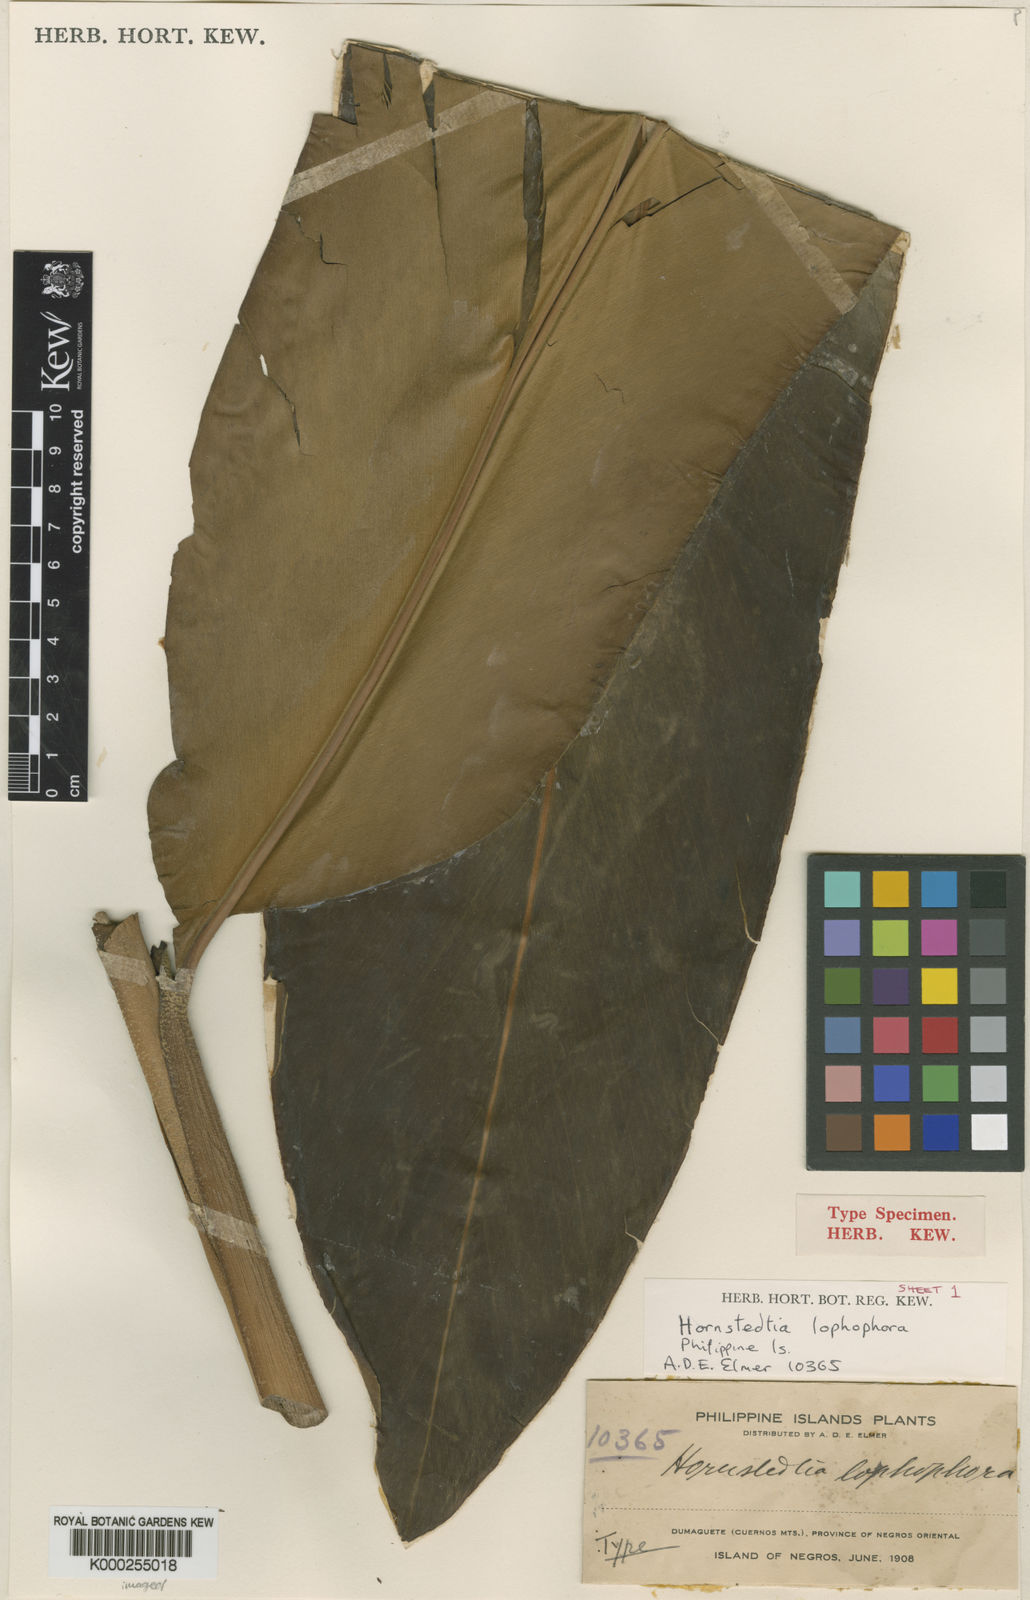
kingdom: Plantae
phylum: Tracheophyta
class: Liliopsida
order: Zingiberales
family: Zingiberaceae
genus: Hornstedtia
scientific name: Hornstedtia lophophora
